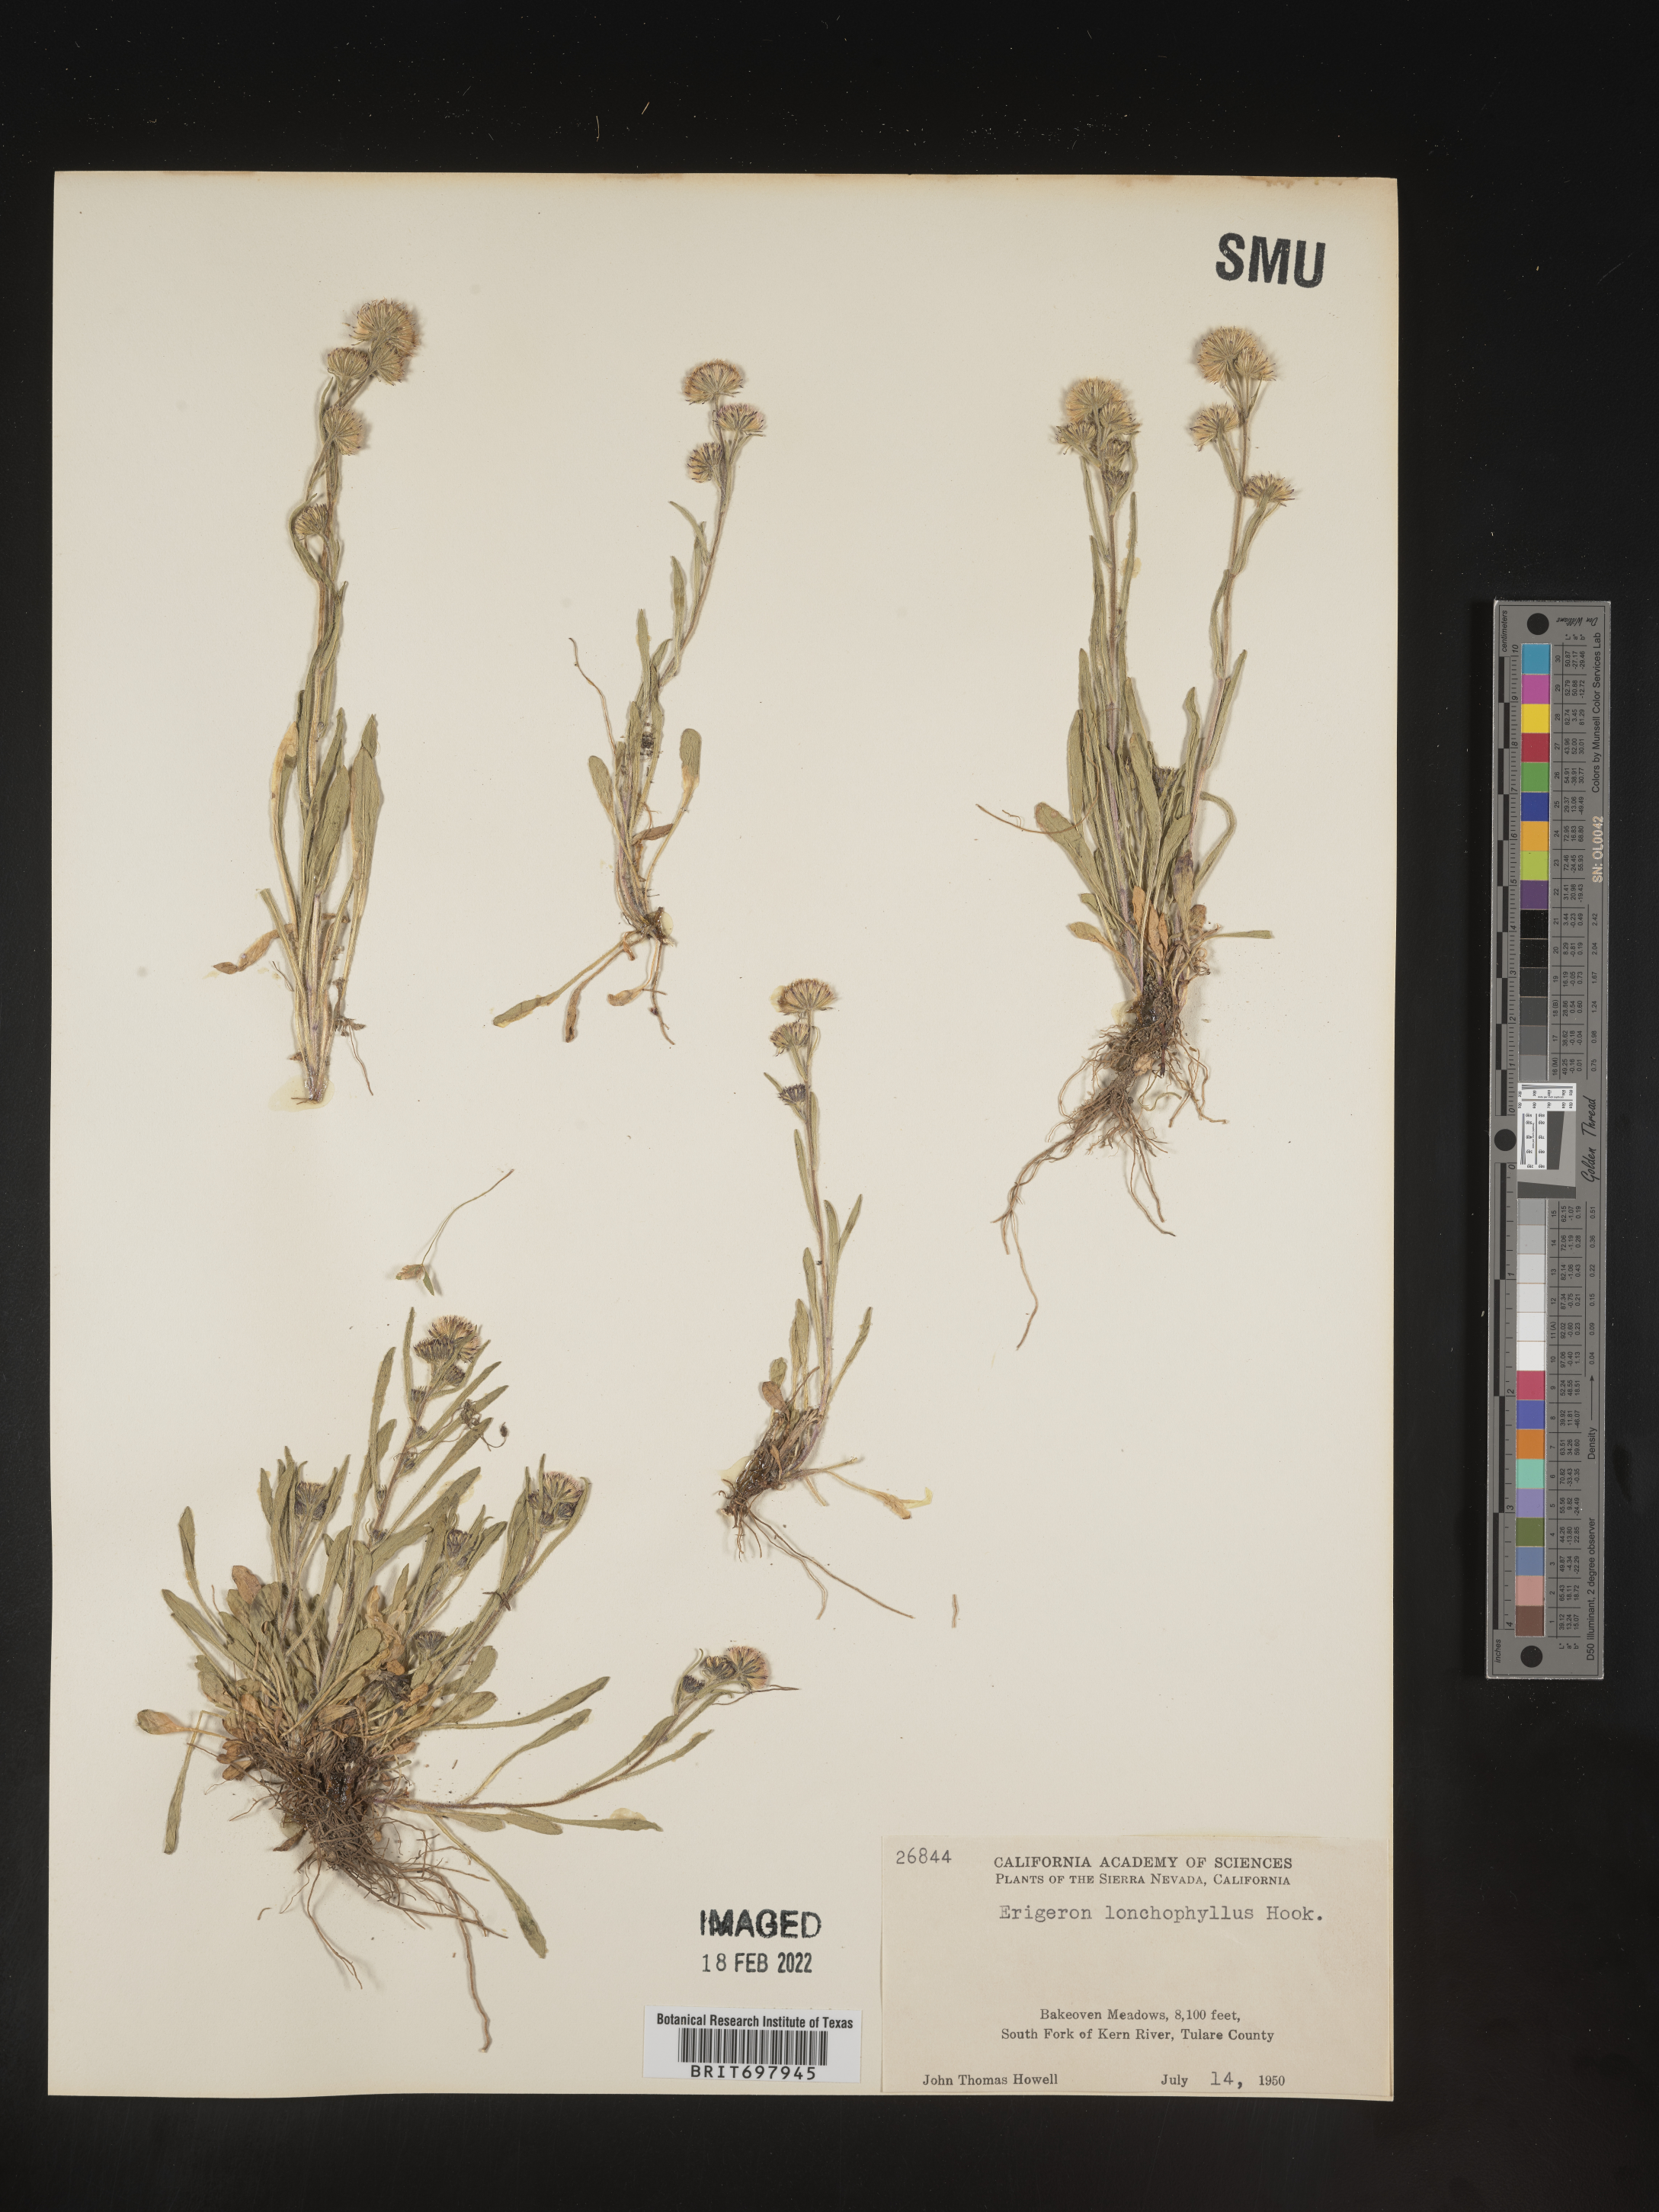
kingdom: Plantae
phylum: Tracheophyta
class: Magnoliopsida
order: Asterales
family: Asteraceae
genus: Erigeron
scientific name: Erigeron lonchophyllus
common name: Short-ray fleabane
